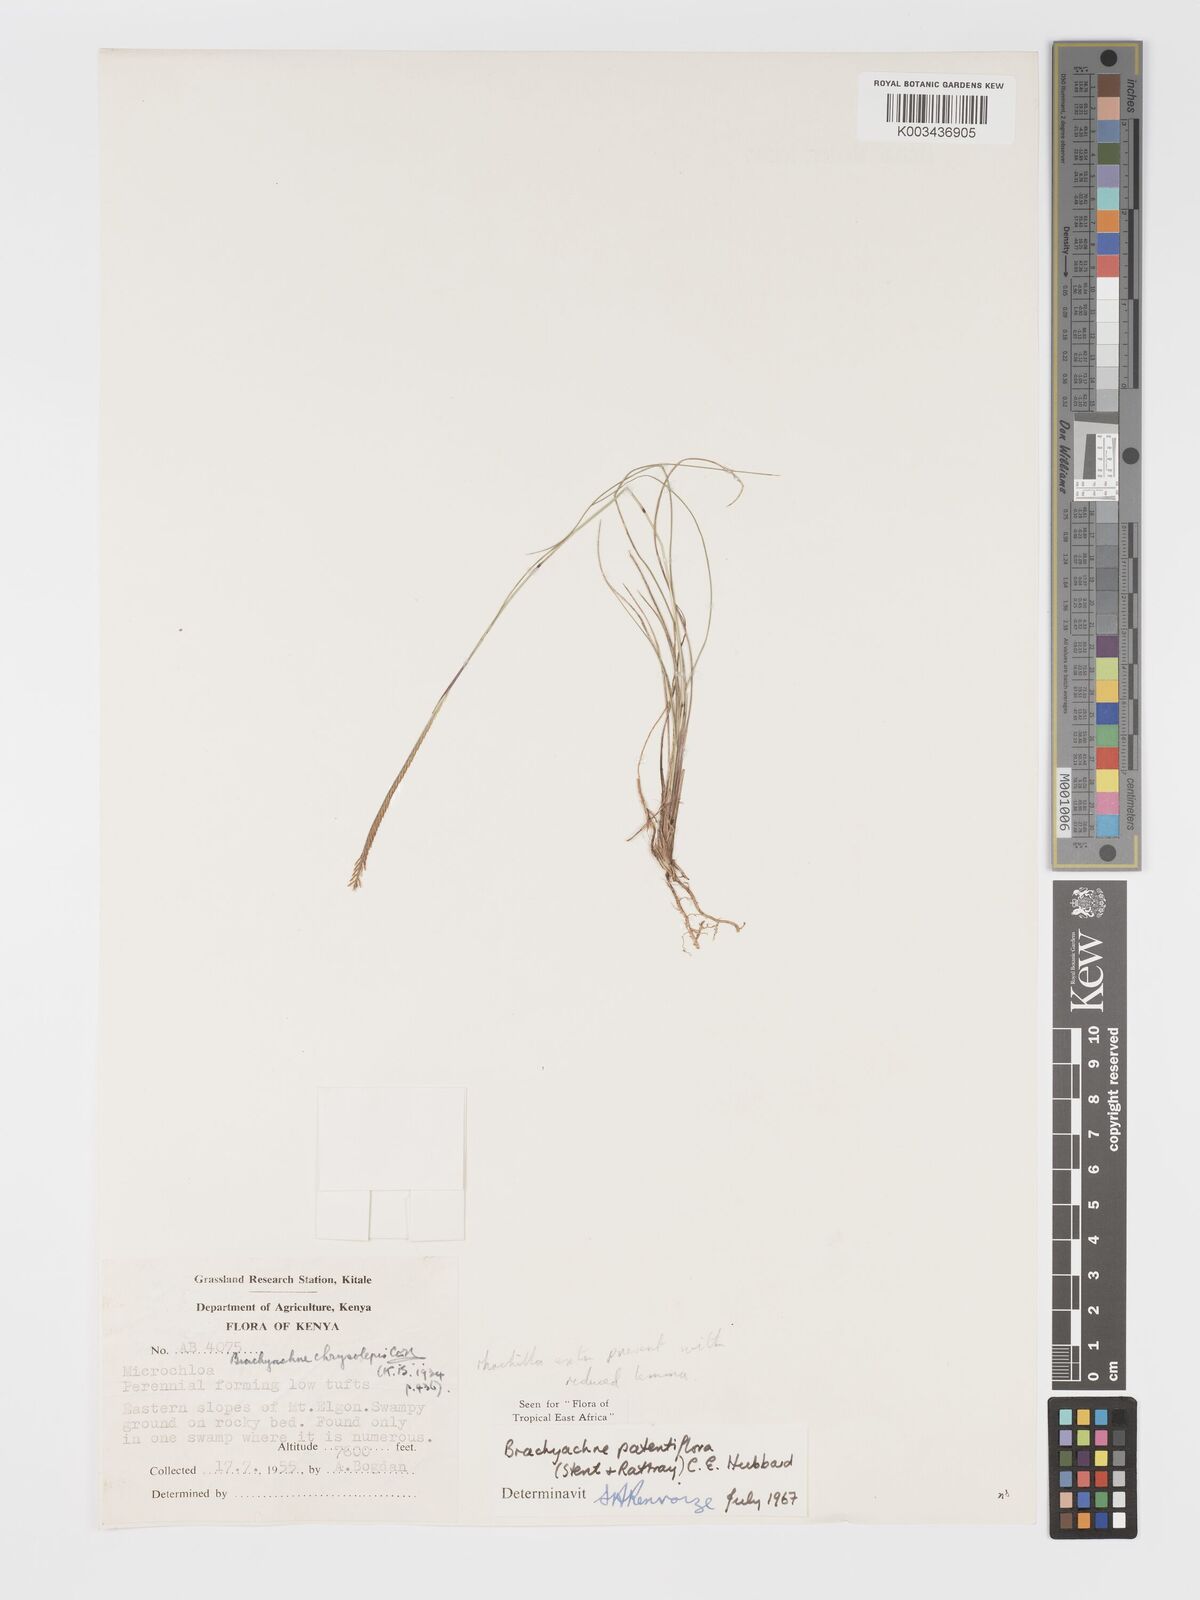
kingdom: Plantae
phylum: Tracheophyta
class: Liliopsida
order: Poales
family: Poaceae
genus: Micrachne
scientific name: Micrachne patentiflora
